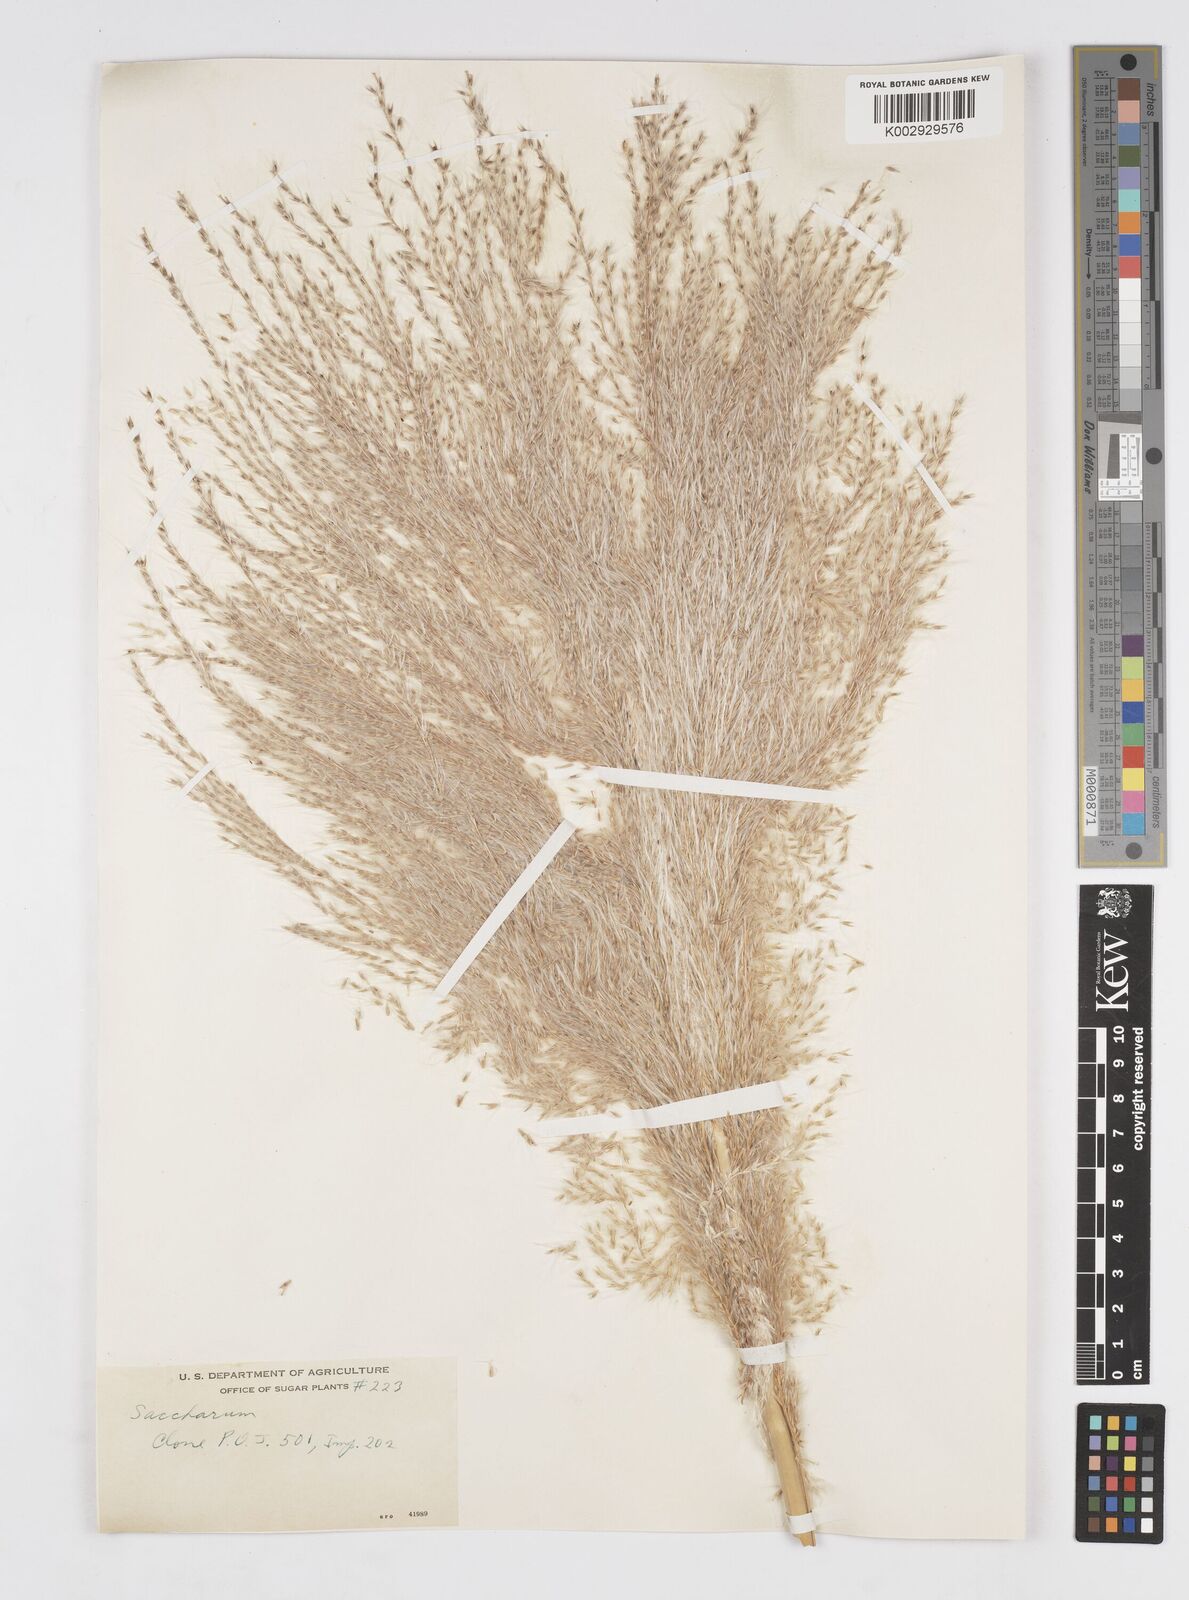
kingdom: Plantae
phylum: Tracheophyta
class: Liliopsida
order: Poales
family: Poaceae
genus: Saccharum
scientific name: Saccharum officinarum
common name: Sugarcane
